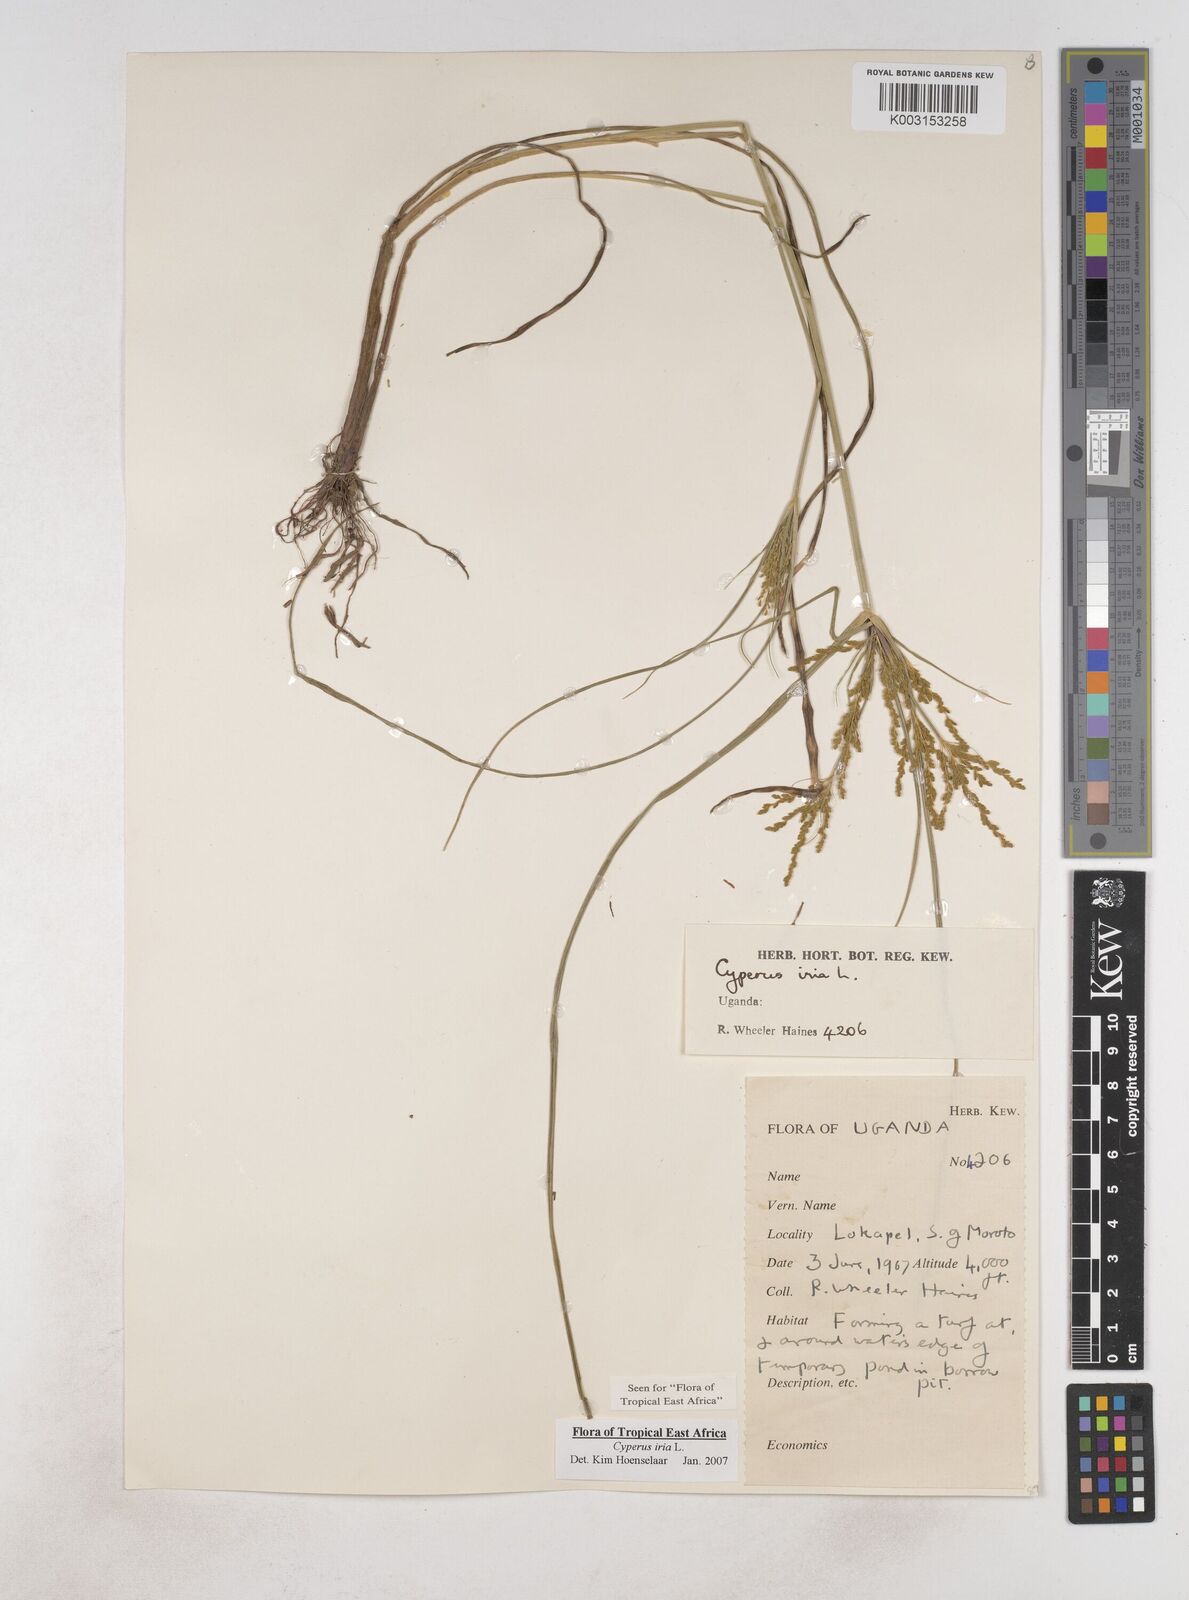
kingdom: Plantae
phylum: Tracheophyta
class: Liliopsida
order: Poales
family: Cyperaceae
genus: Cyperus
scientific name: Cyperus iria
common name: Ricefield flatsedge
